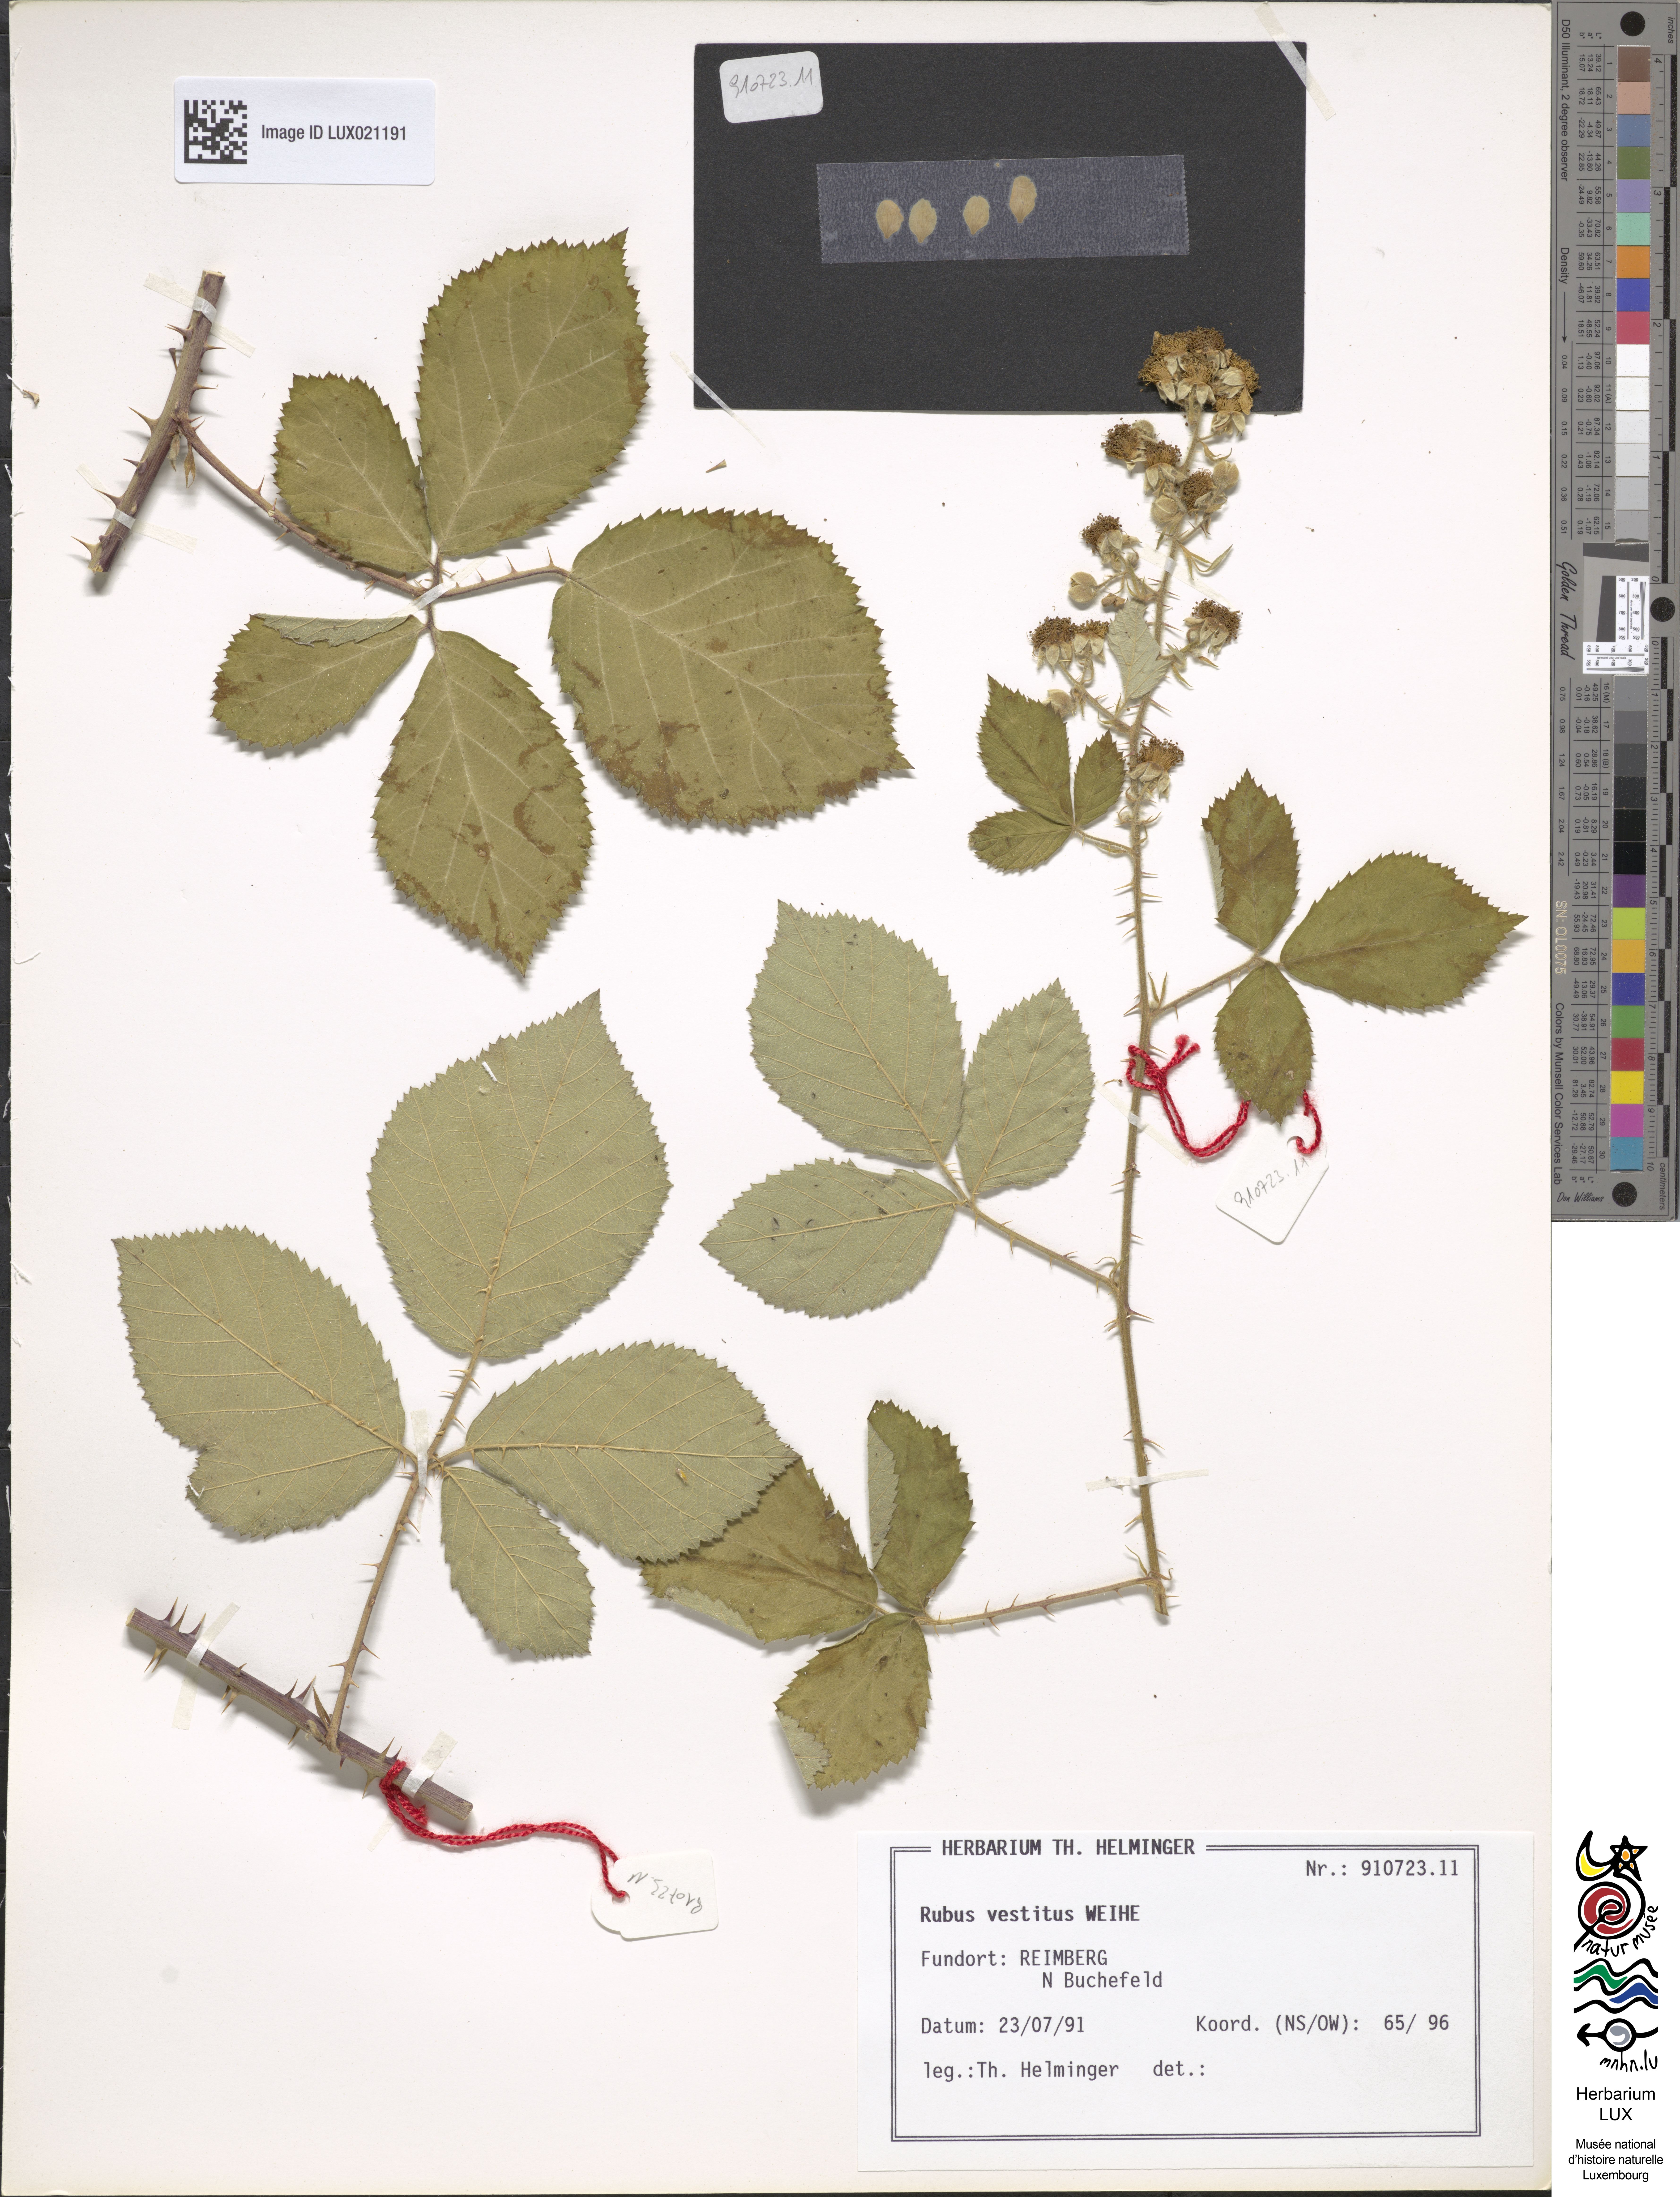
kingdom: Plantae
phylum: Tracheophyta
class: Magnoliopsida
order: Rosales
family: Rosaceae
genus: Rubus
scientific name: Rubus vestitus
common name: European blackberry
